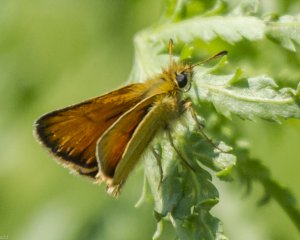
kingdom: Animalia
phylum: Arthropoda
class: Insecta
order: Lepidoptera
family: Hesperiidae
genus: Thymelicus
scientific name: Thymelicus lineola
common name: European Skipper
